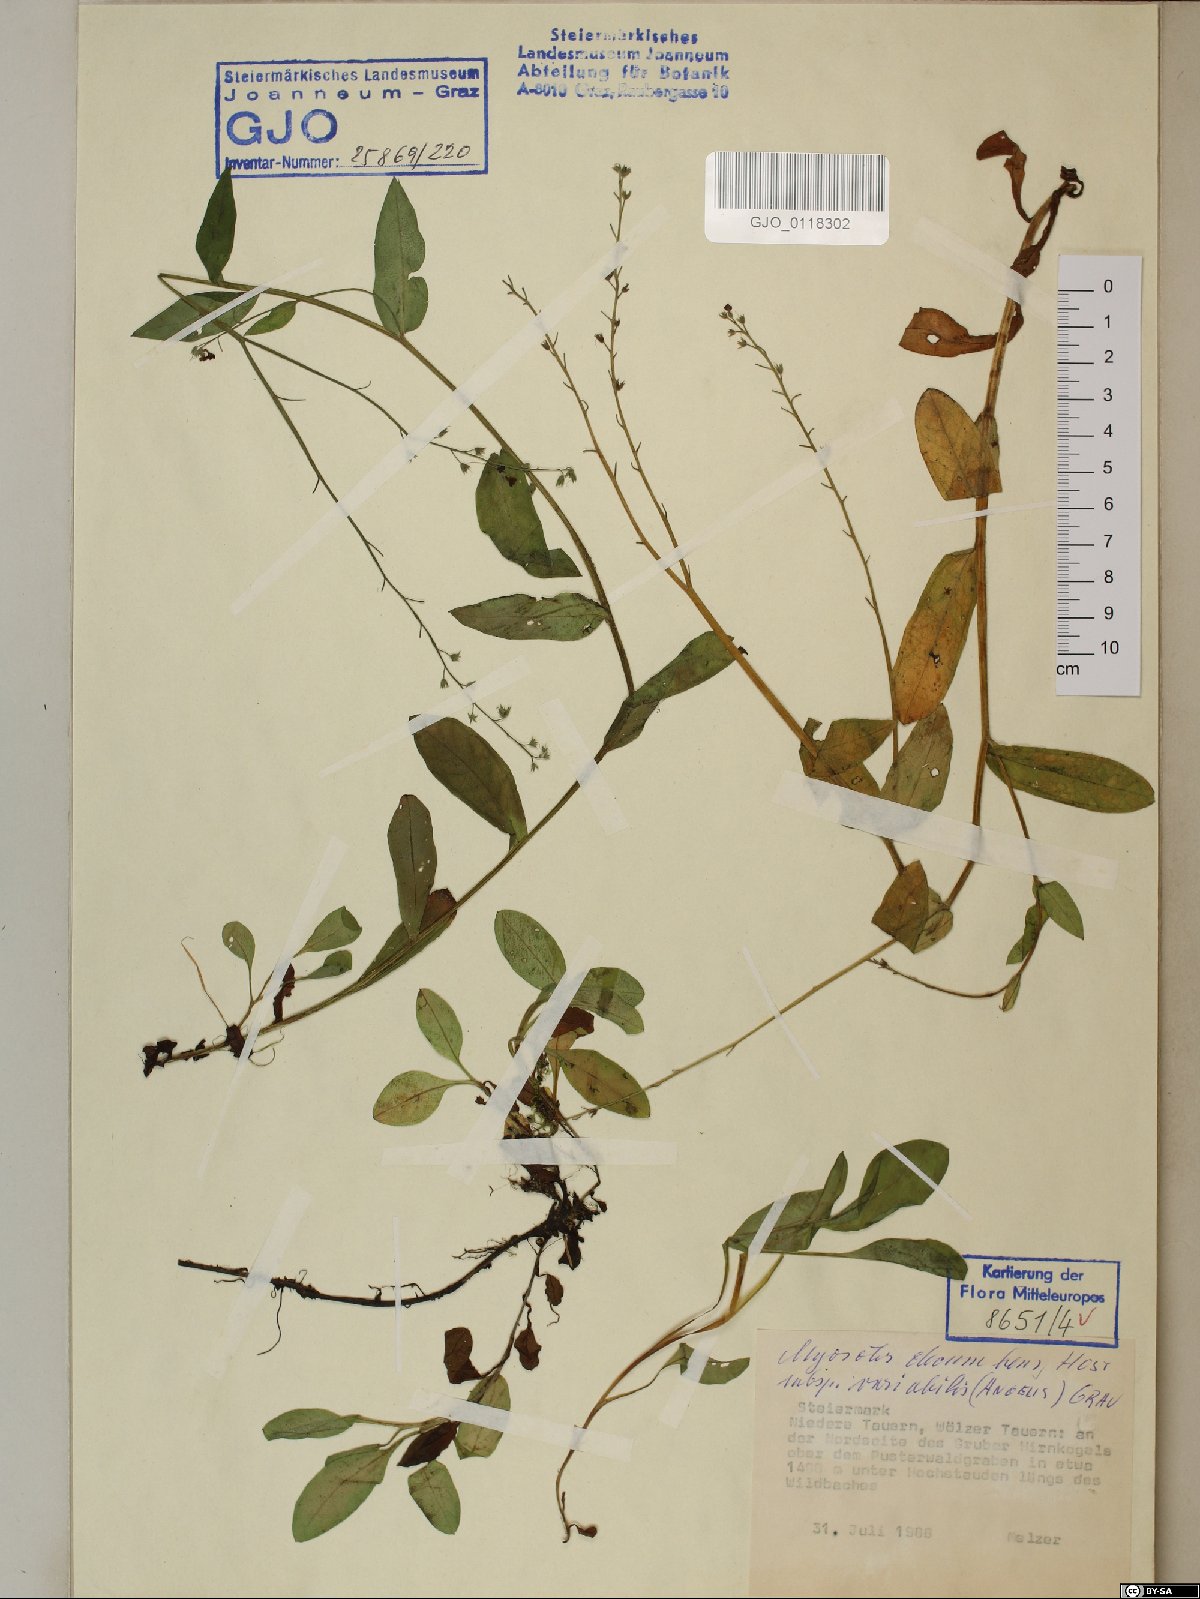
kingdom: Plantae
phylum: Tracheophyta
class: Magnoliopsida
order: Boraginales
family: Boraginaceae
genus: Myosotis
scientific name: Myosotis decumbens
